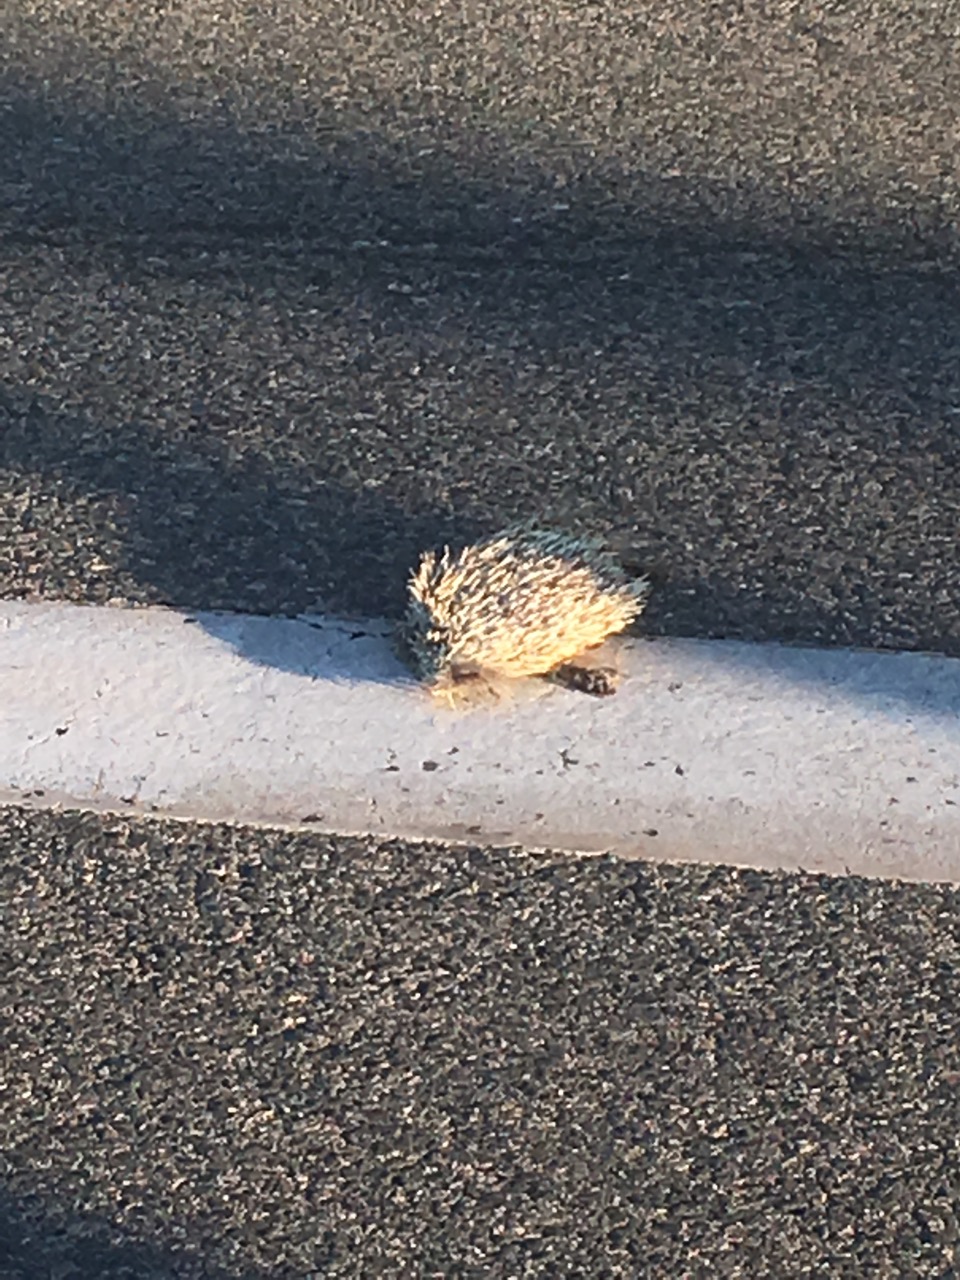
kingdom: Animalia
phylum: Chordata
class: Mammalia
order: Erinaceomorpha
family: Erinaceidae
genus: Erinaceus
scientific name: Erinaceus
